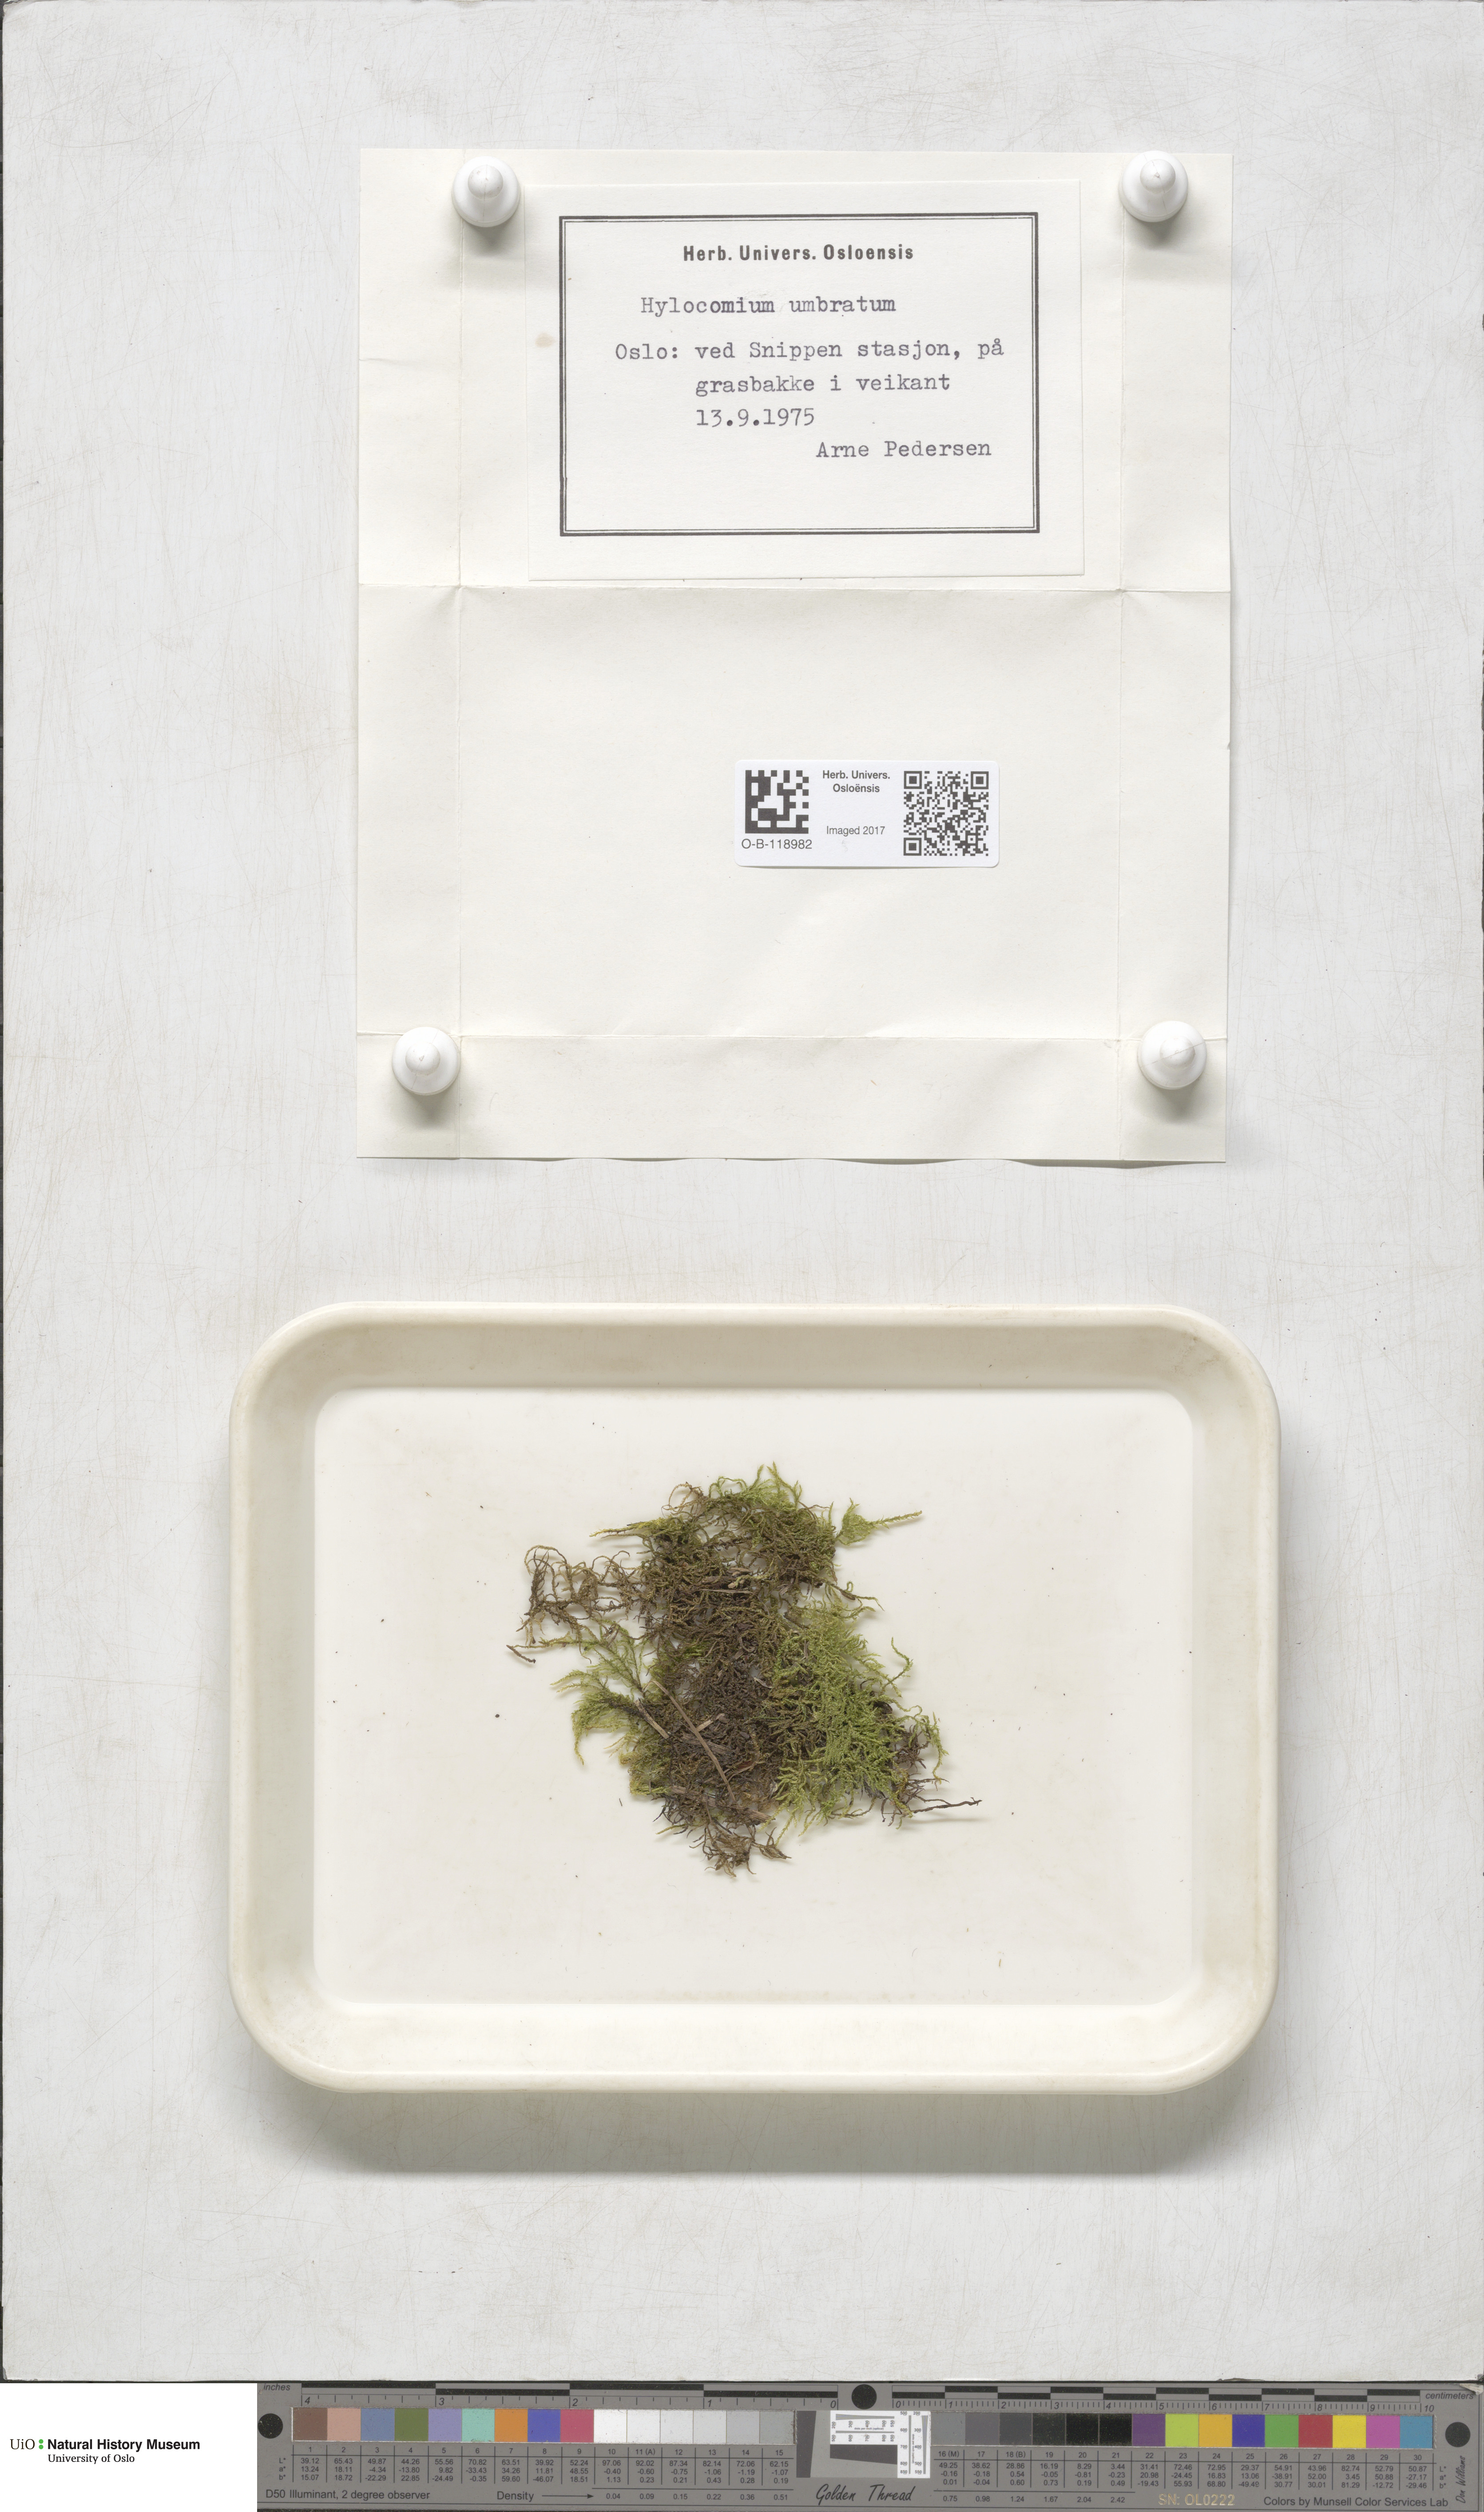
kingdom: Plantae
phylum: Bryophyta
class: Bryopsida
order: Hypnales
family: Hylocomiaceae
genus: Hylocomiastrum
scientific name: Hylocomiastrum umbratum
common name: Shaded woods moss
